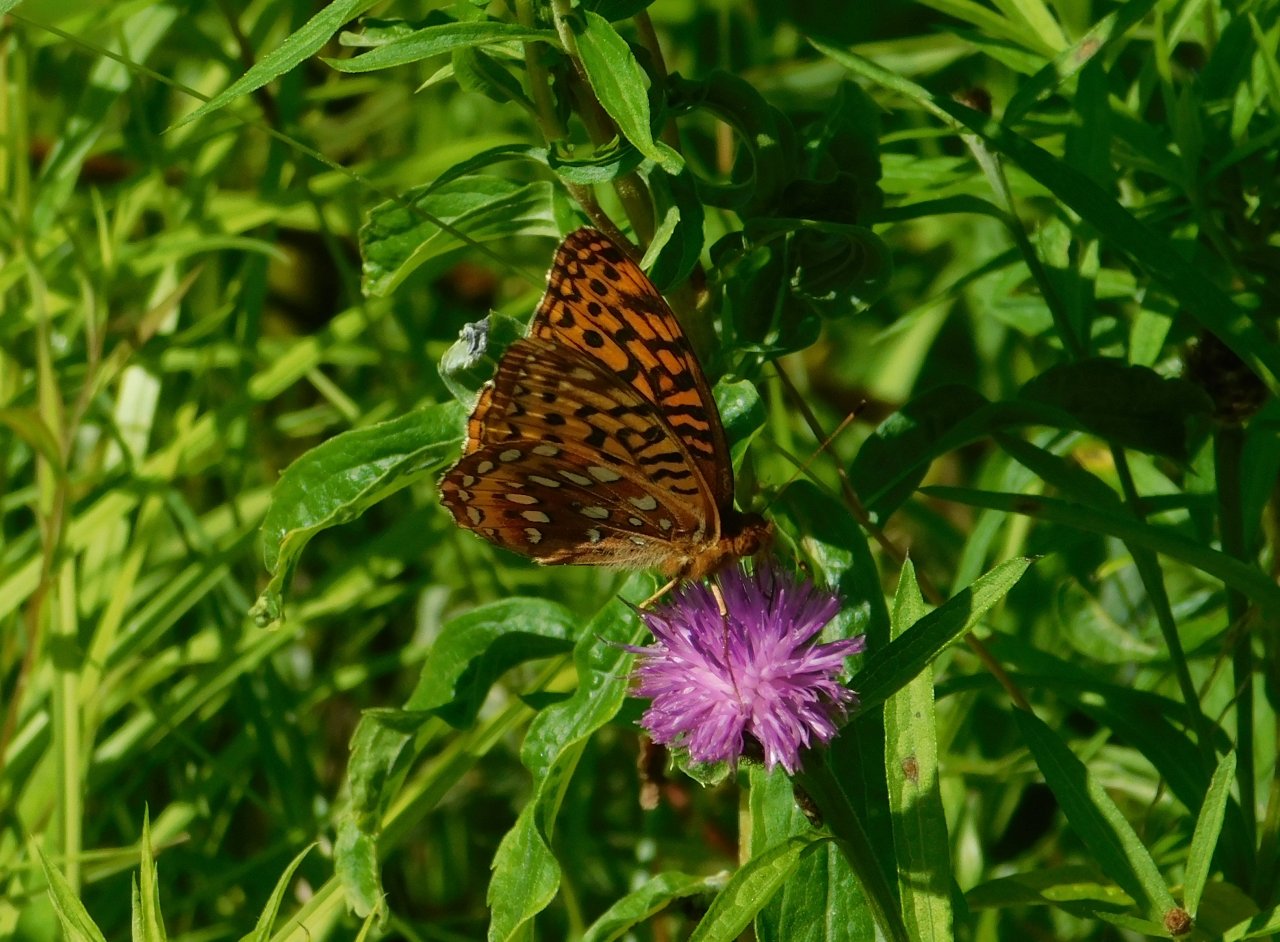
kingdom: Animalia
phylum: Arthropoda
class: Insecta
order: Lepidoptera
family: Nymphalidae
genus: Speyeria
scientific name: Speyeria cybele
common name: Great Spangled Fritillary
